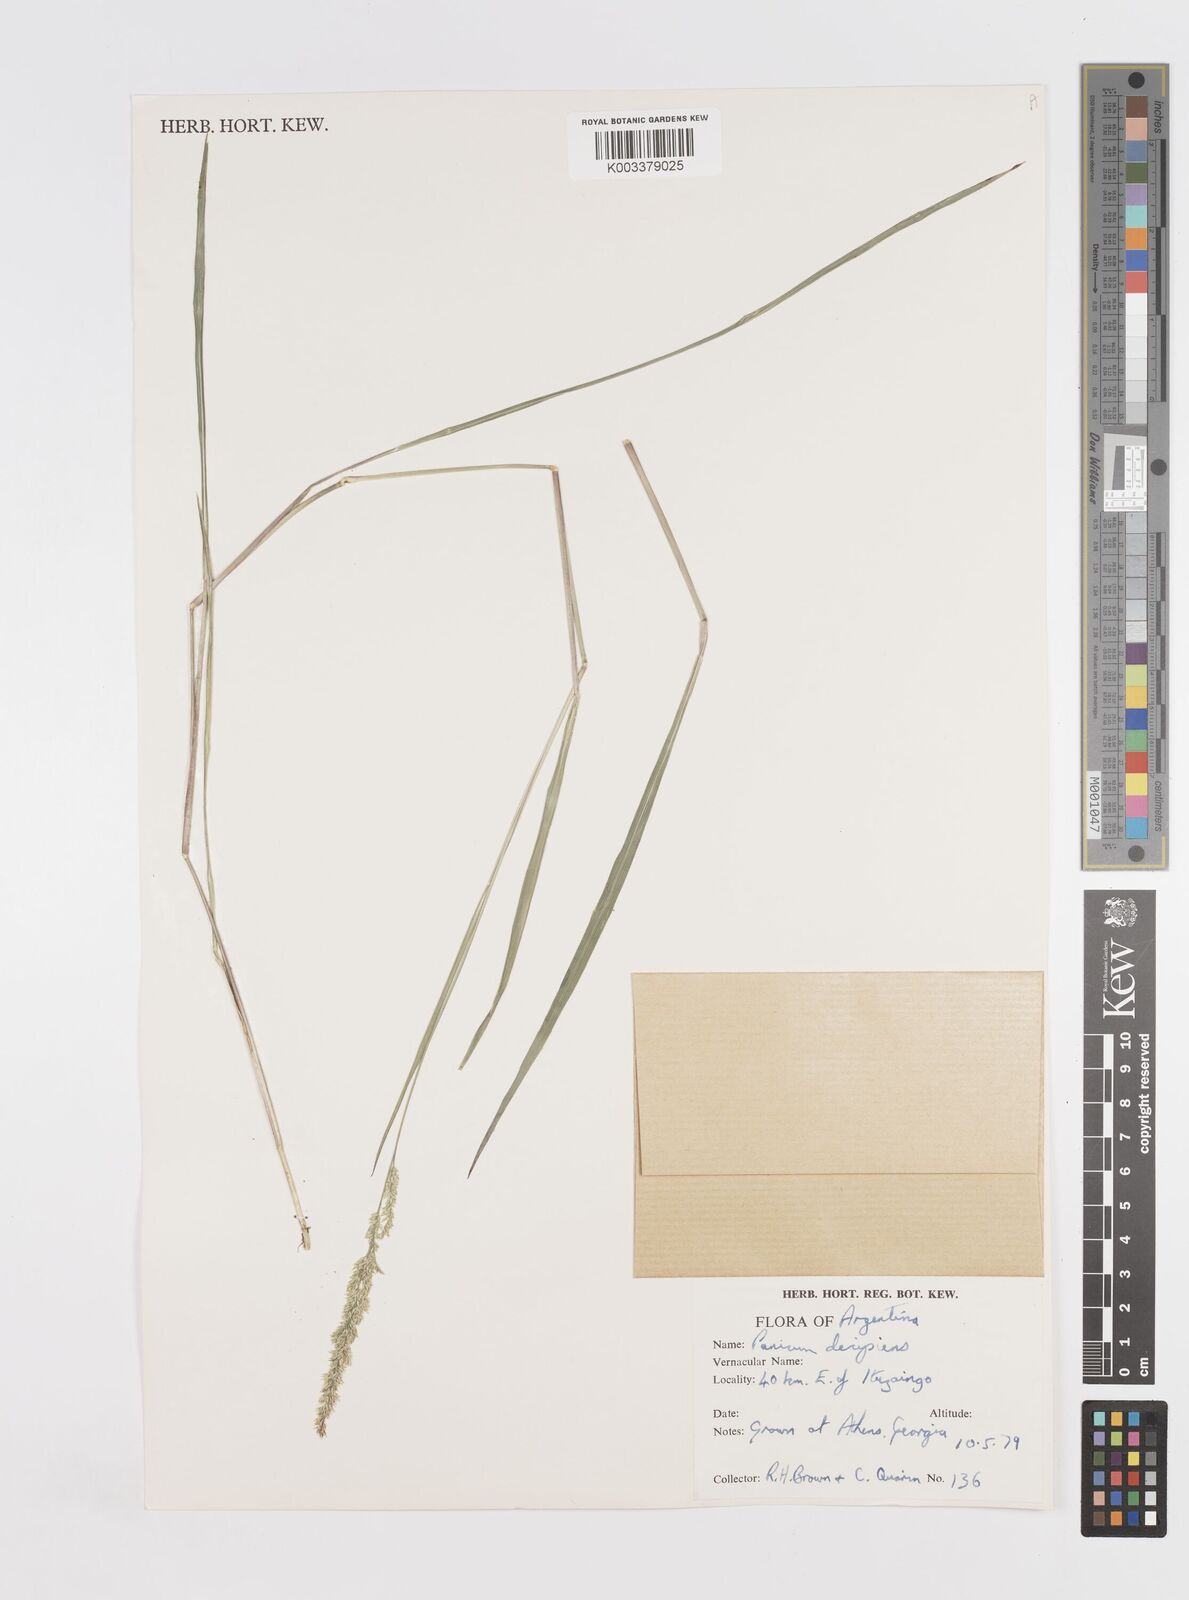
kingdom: Plantae
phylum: Tracheophyta
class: Liliopsida
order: Poales
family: Poaceae
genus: Steinchisma
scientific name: Steinchisma decipiens
